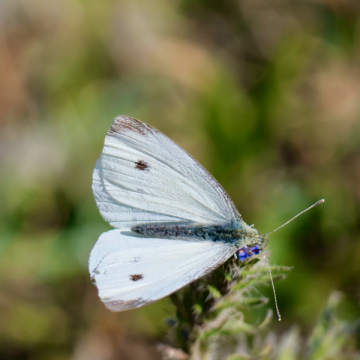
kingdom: Animalia
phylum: Arthropoda
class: Insecta
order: Lepidoptera
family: Pieridae
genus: Pieris
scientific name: Pieris rapae
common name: Cabbage White
